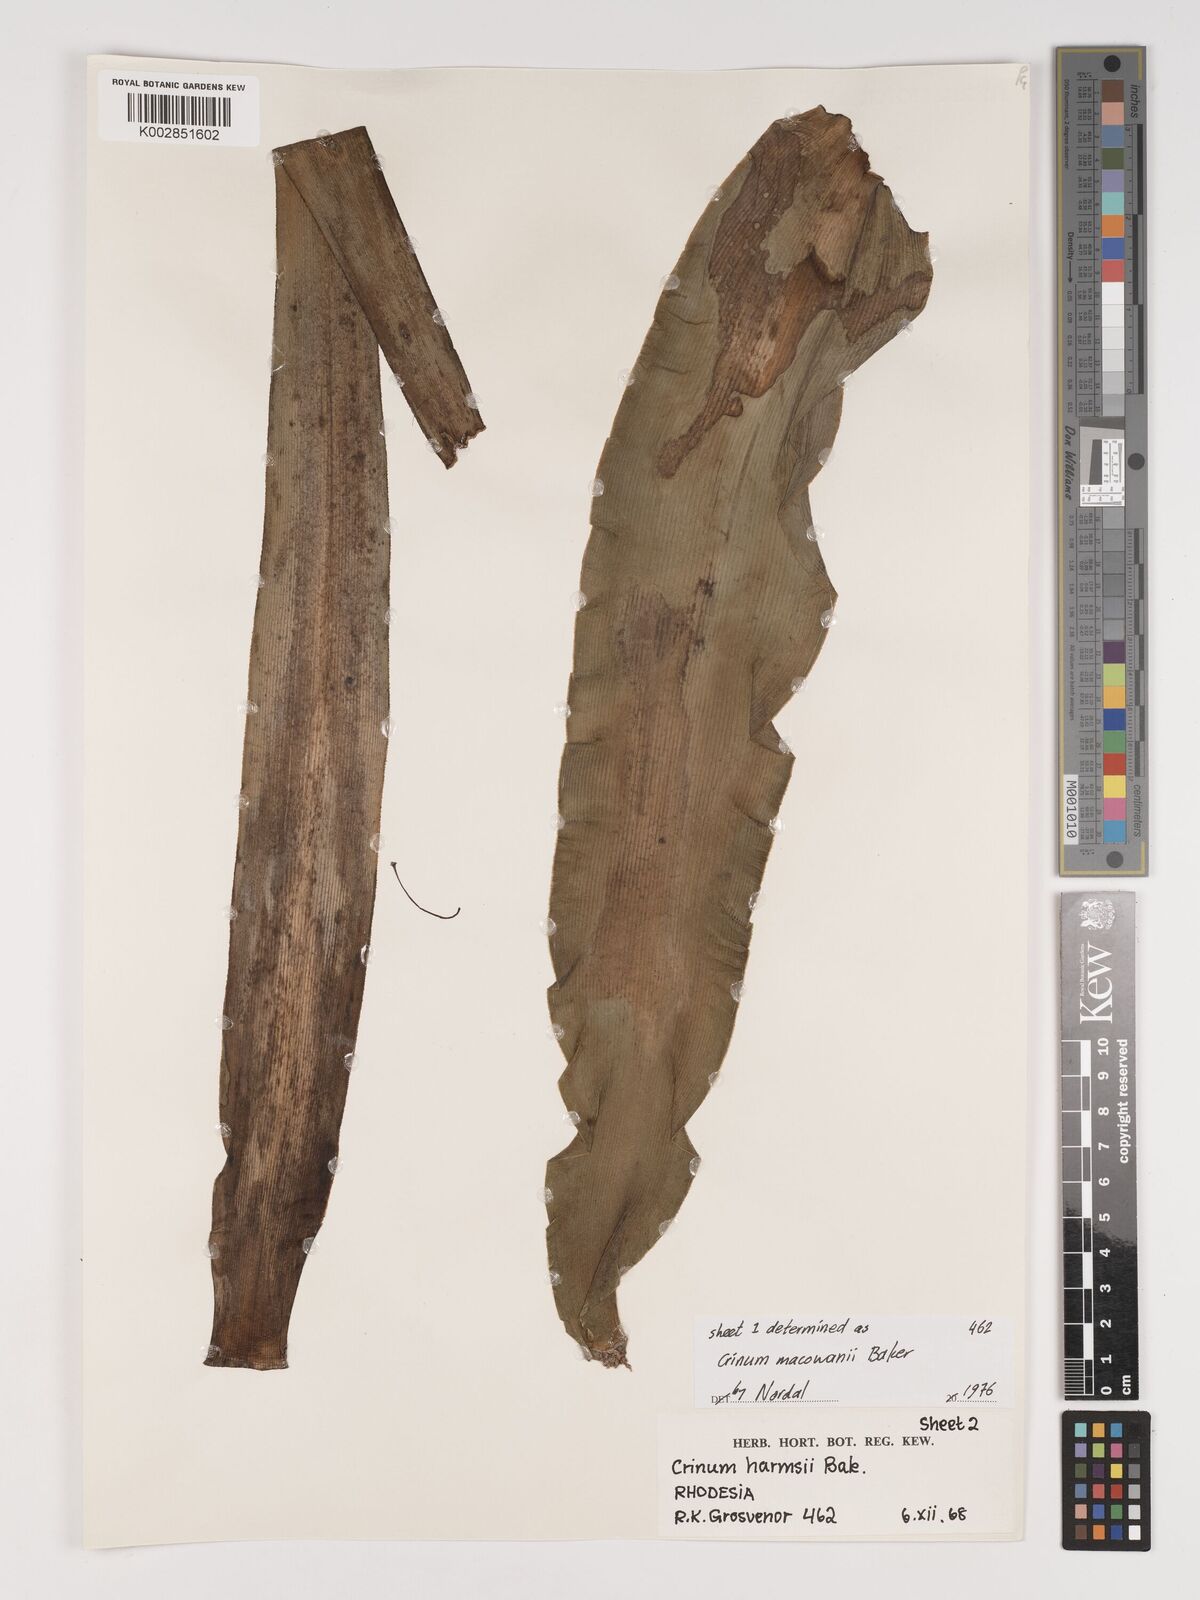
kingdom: Plantae
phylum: Tracheophyta
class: Liliopsida
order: Asparagales
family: Amaryllidaceae
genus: Crinum
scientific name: Crinum macowanii
